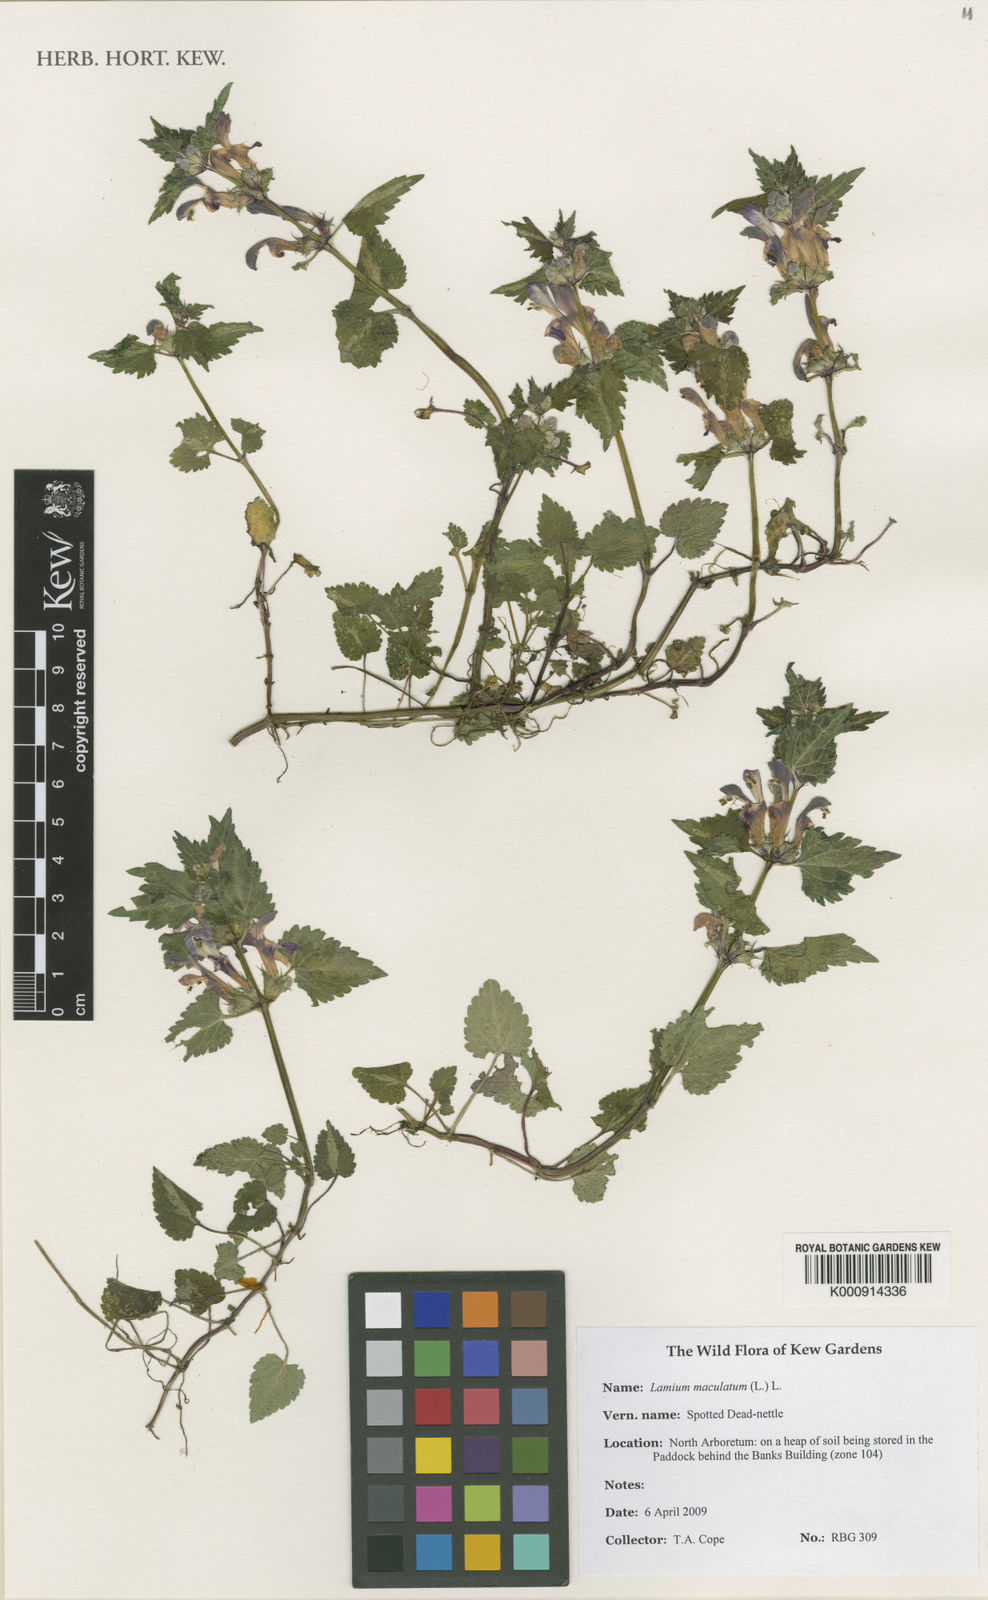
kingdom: Plantae
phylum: Tracheophyta
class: Magnoliopsida
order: Lamiales
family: Lamiaceae
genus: Lamium
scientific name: Lamium maculatum
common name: Spotted dead-nettle
